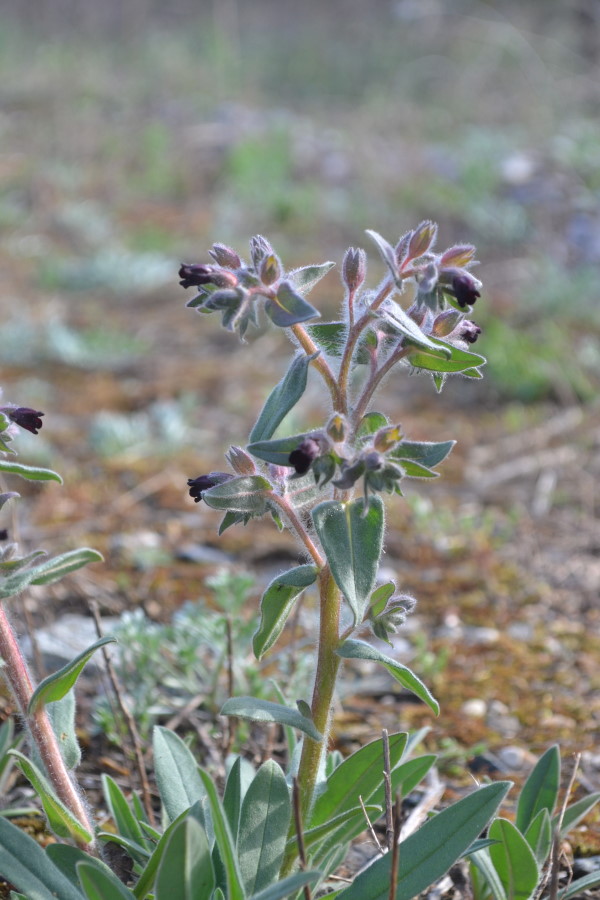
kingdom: Plantae
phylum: Tracheophyta
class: Magnoliopsida
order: Boraginales
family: Boraginaceae
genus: Nonea
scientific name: Nonea pulla
